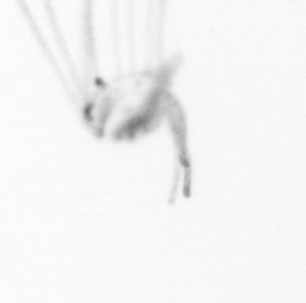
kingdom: Animalia
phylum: Cnidaria
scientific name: Cnidaria
